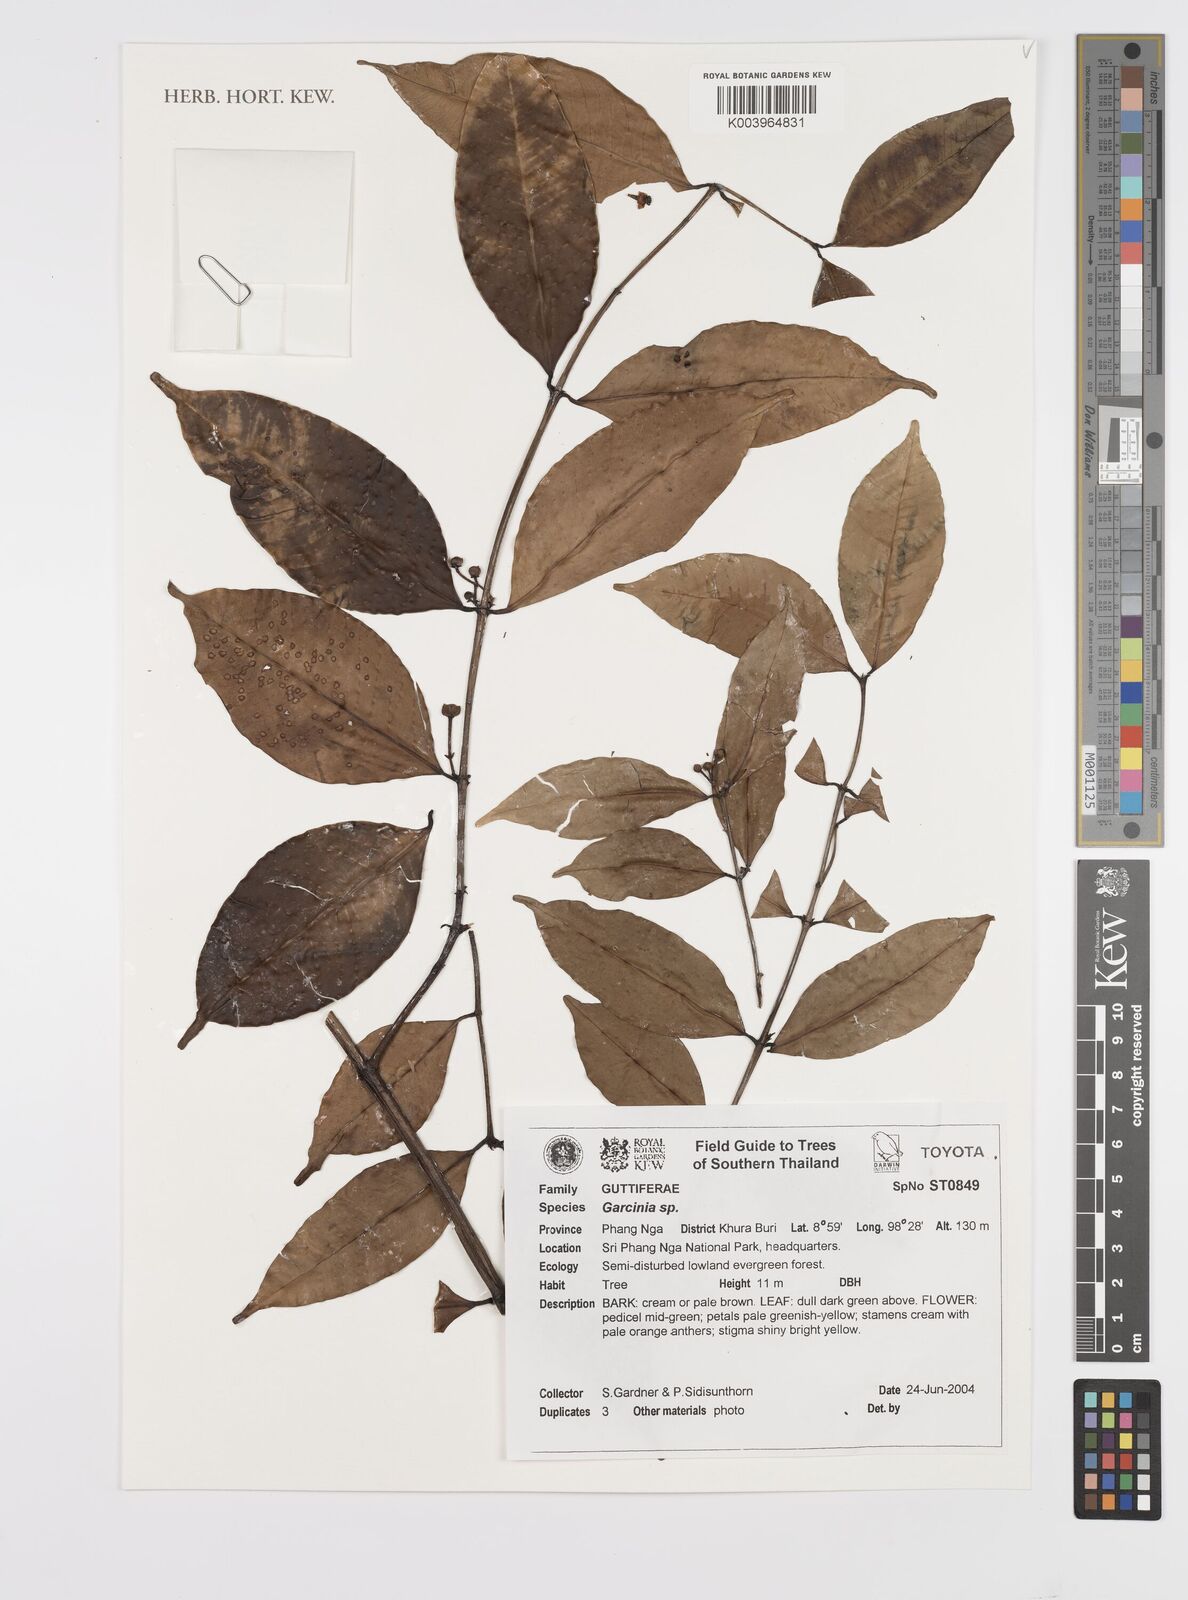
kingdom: Plantae
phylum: Tracheophyta
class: Magnoliopsida
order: Malpighiales
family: Clusiaceae
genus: Garcinia
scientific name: Garcinia
